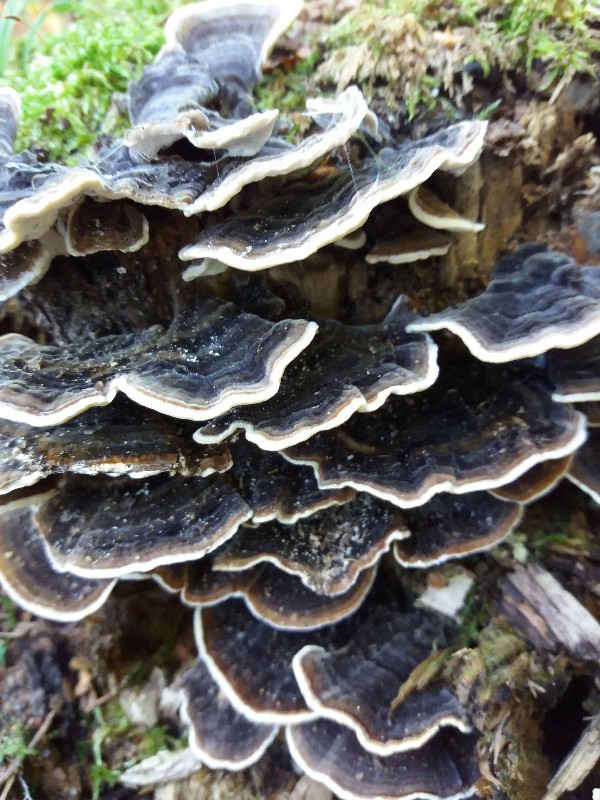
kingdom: Fungi
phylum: Basidiomycota
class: Agaricomycetes
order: Polyporales
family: Polyporaceae
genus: Trametes
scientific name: Trametes versicolor
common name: broget læderporesvamp
